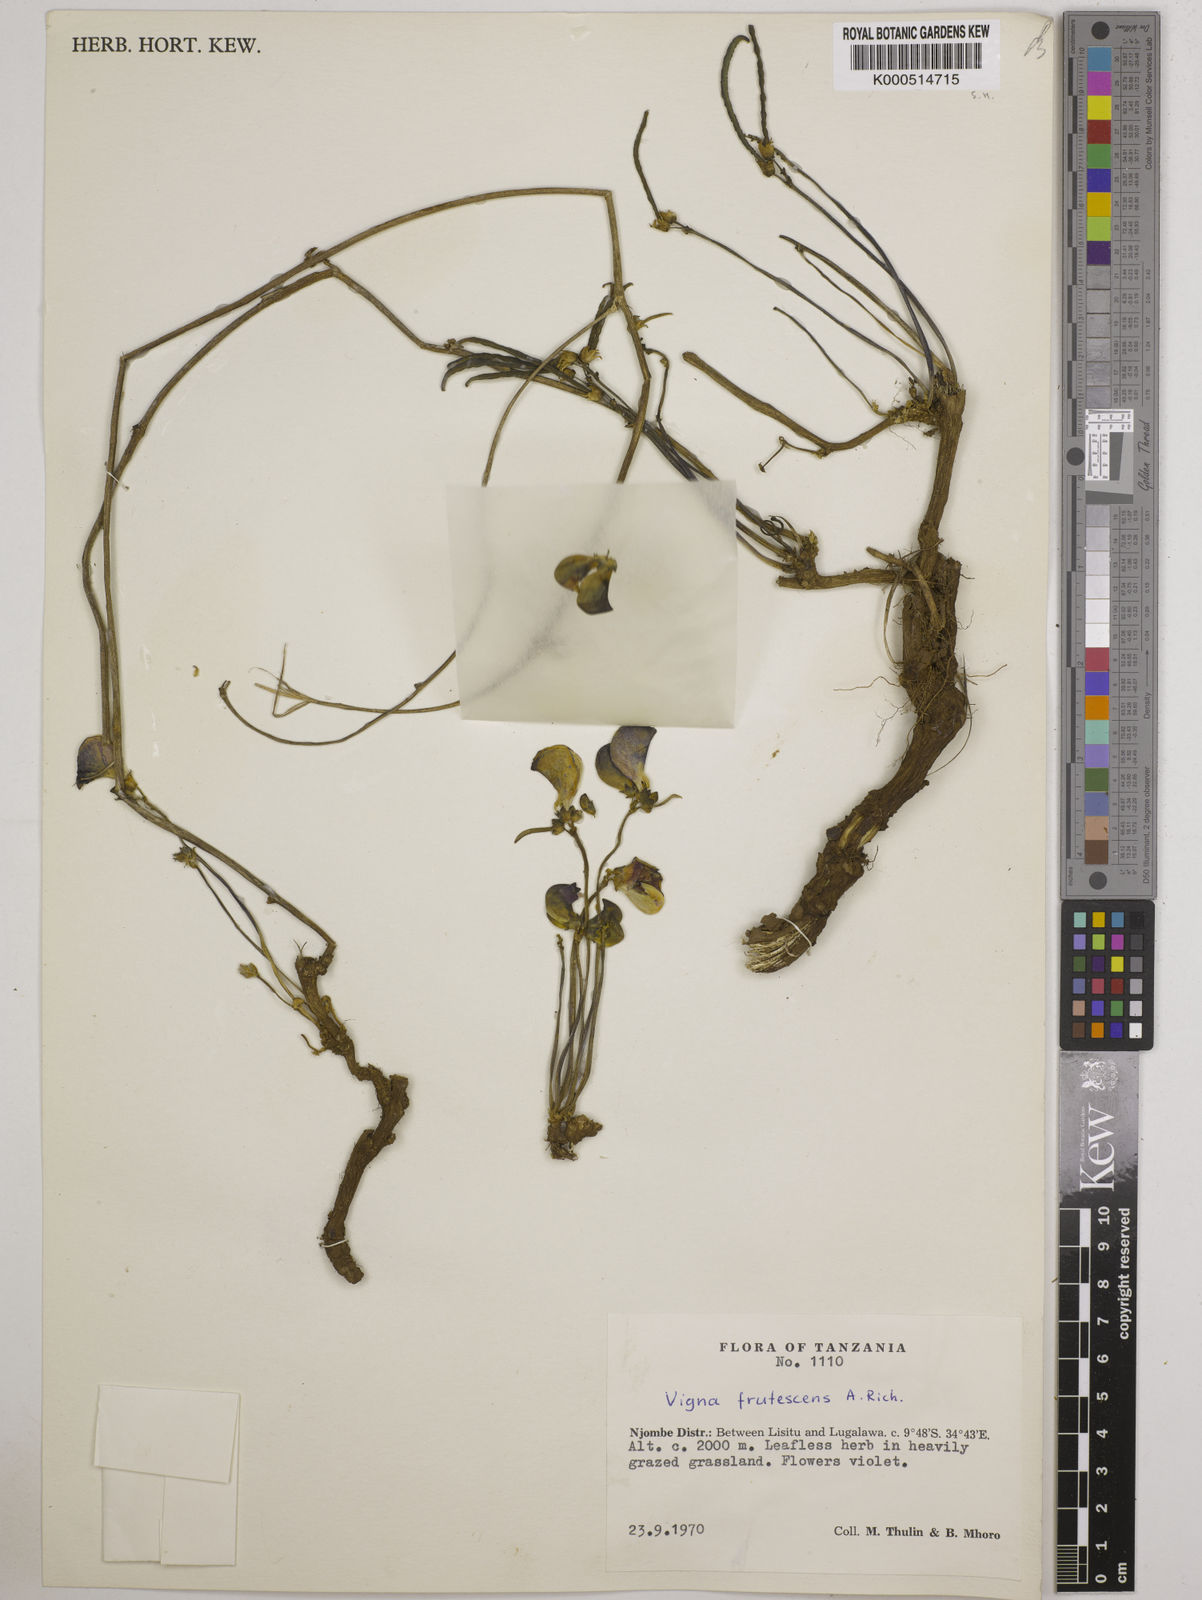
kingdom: Plantae
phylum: Tracheophyta
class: Magnoliopsida
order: Fabales
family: Fabaceae
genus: Vigna
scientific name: Vigna frutescens
